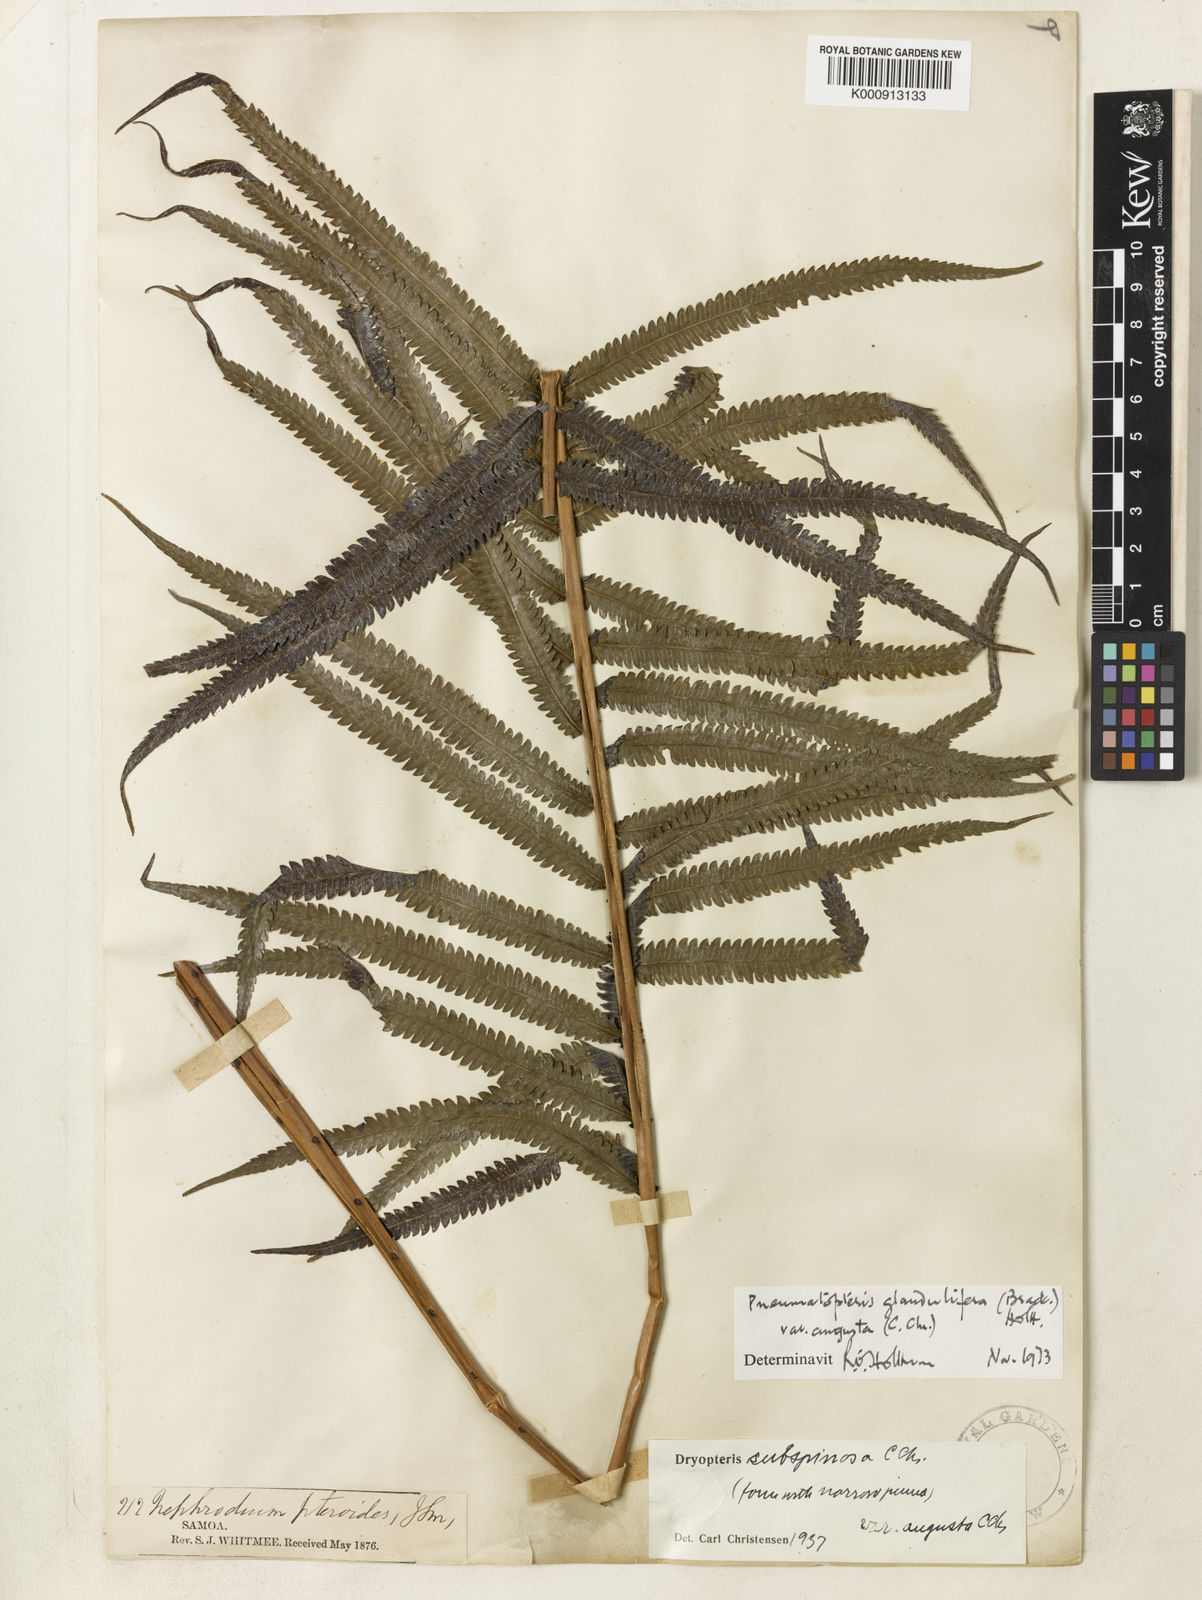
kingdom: Plantae
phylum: Tracheophyta
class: Polypodiopsida
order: Polypodiales
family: Thelypteridaceae
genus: Pneumatopteris
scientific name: Pneumatopteris glandulifera
